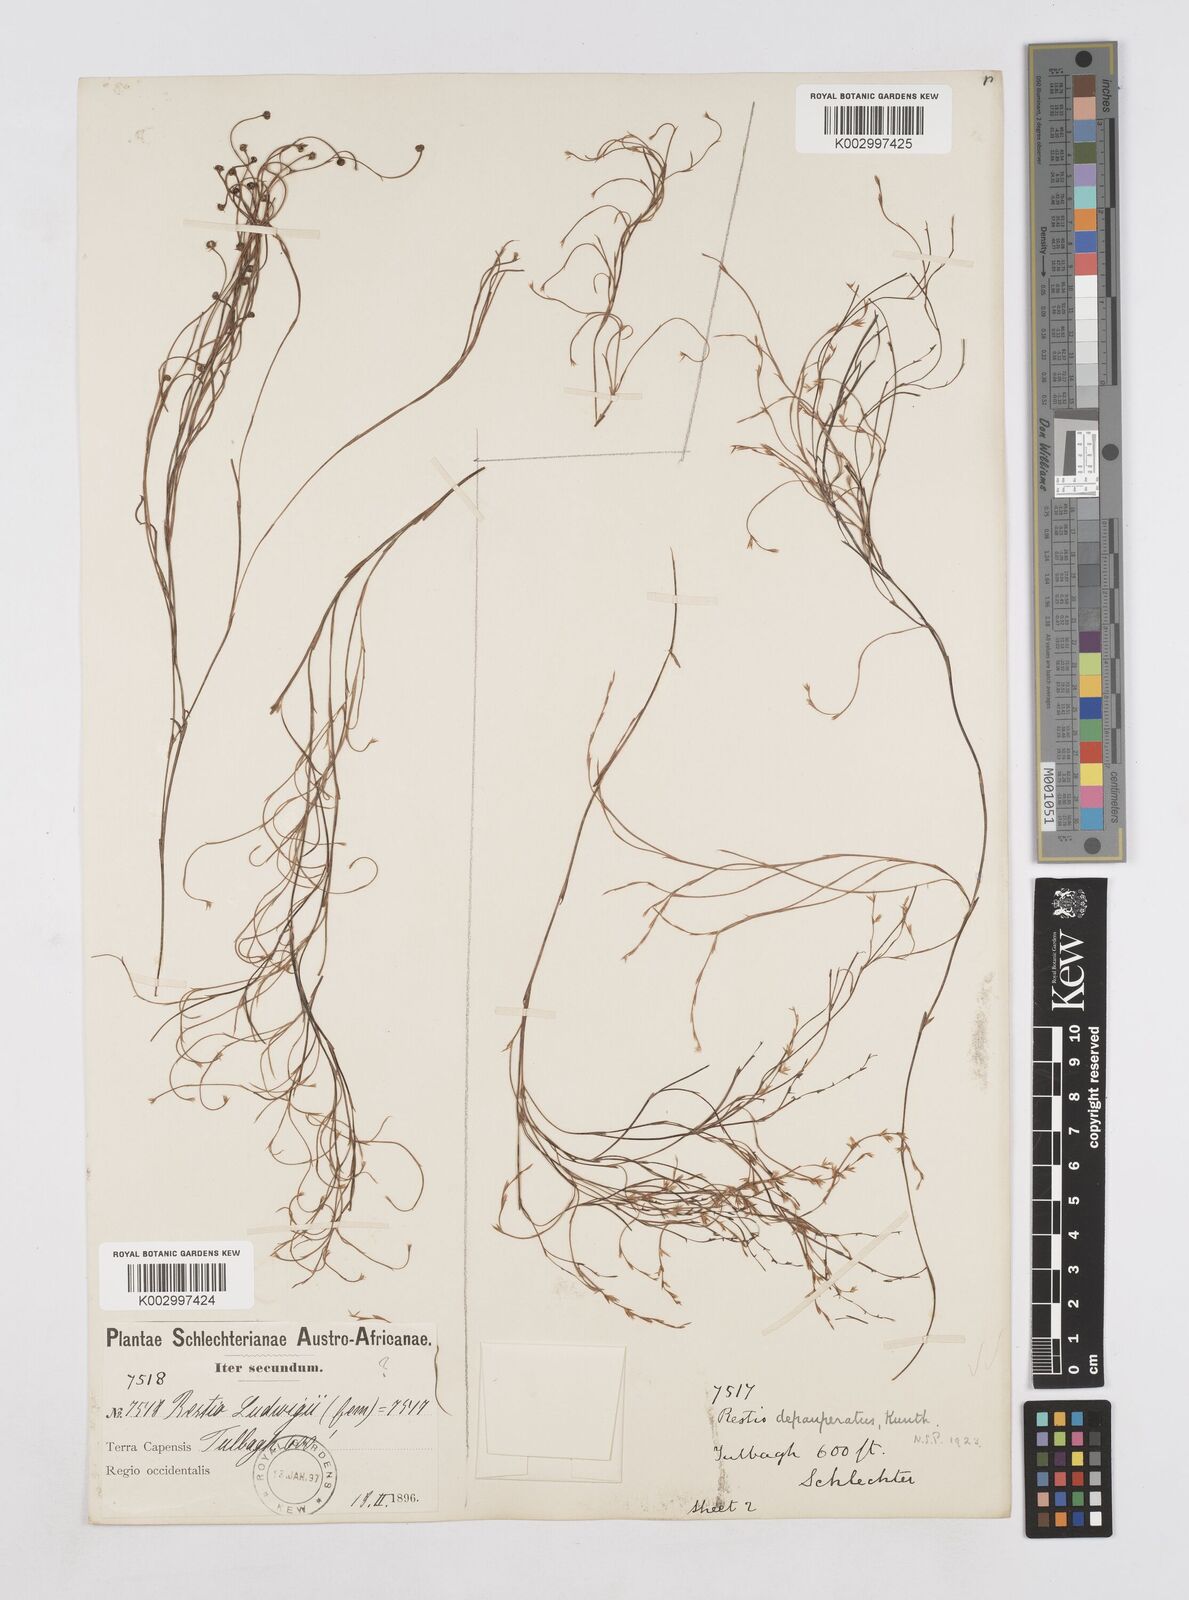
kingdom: Plantae
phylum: Tracheophyta
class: Liliopsida
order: Poales
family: Restionaceae
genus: Platycaulos
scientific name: Platycaulos depauperatus
